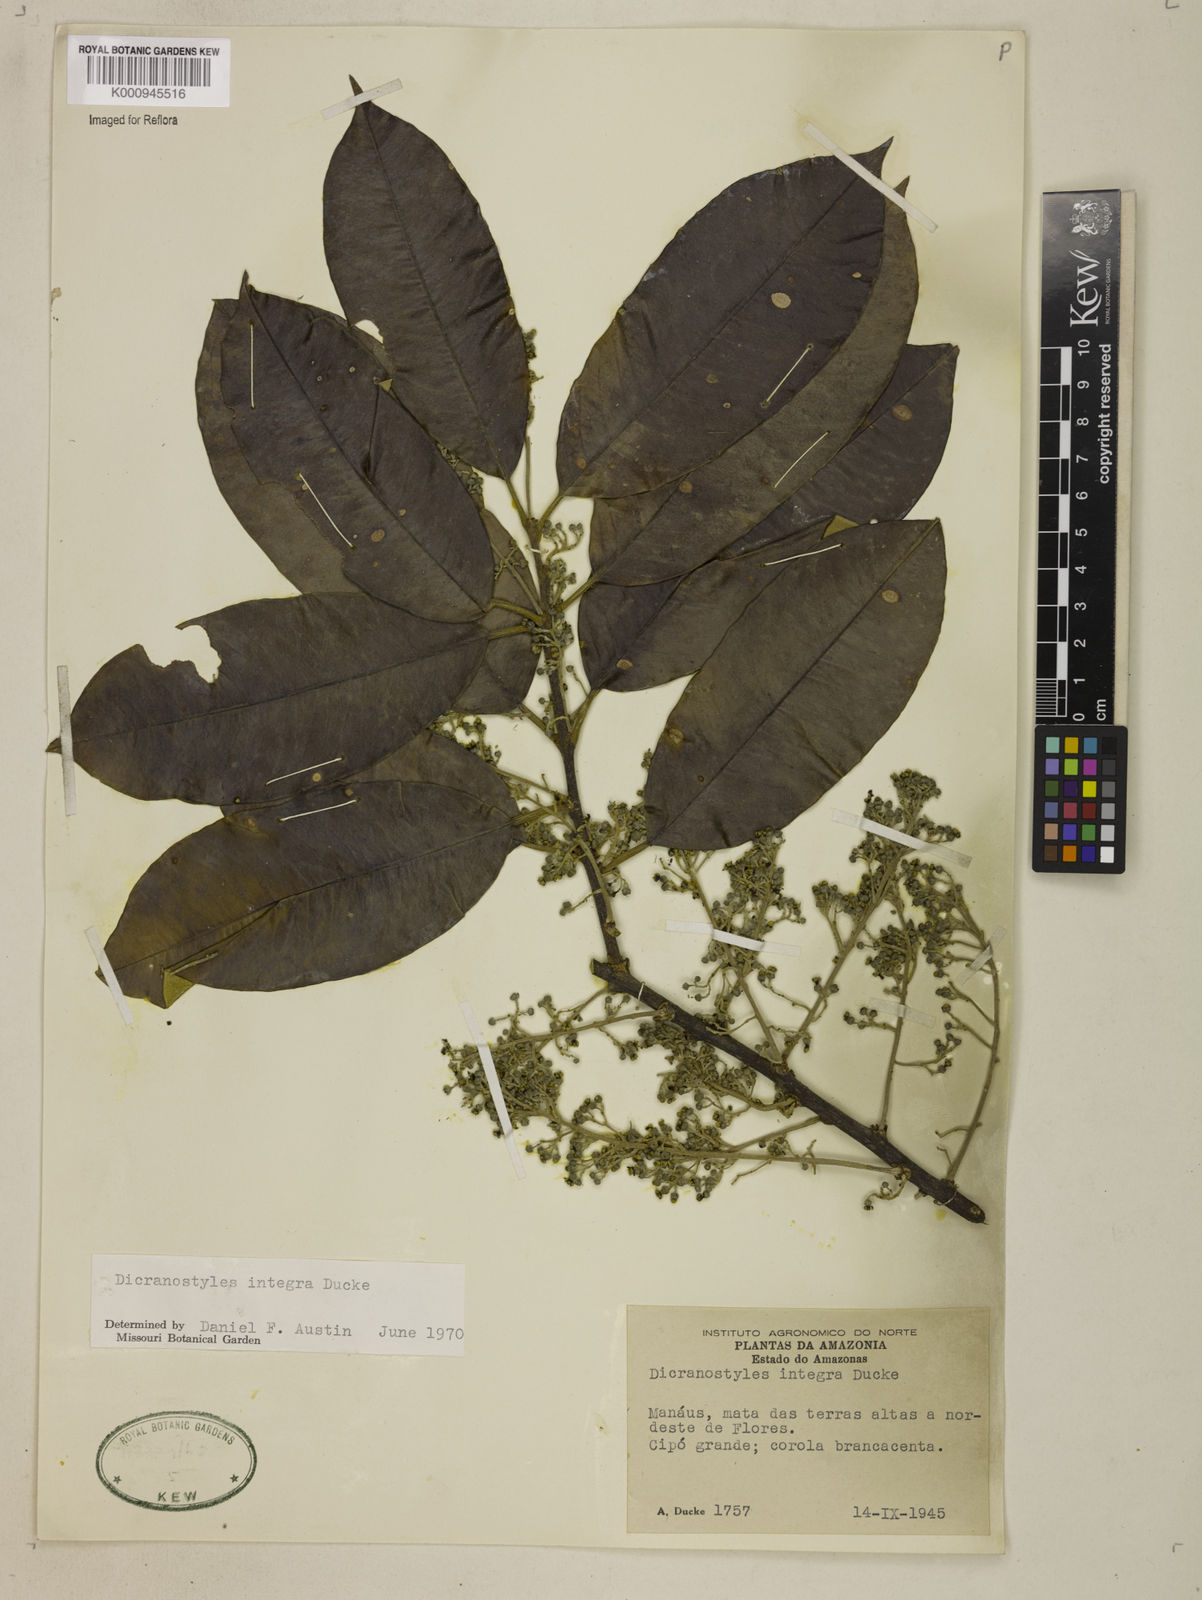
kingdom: Plantae
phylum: Tracheophyta
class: Magnoliopsida
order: Solanales
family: Convolvulaceae
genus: Dicranostyles
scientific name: Dicranostyles integra
